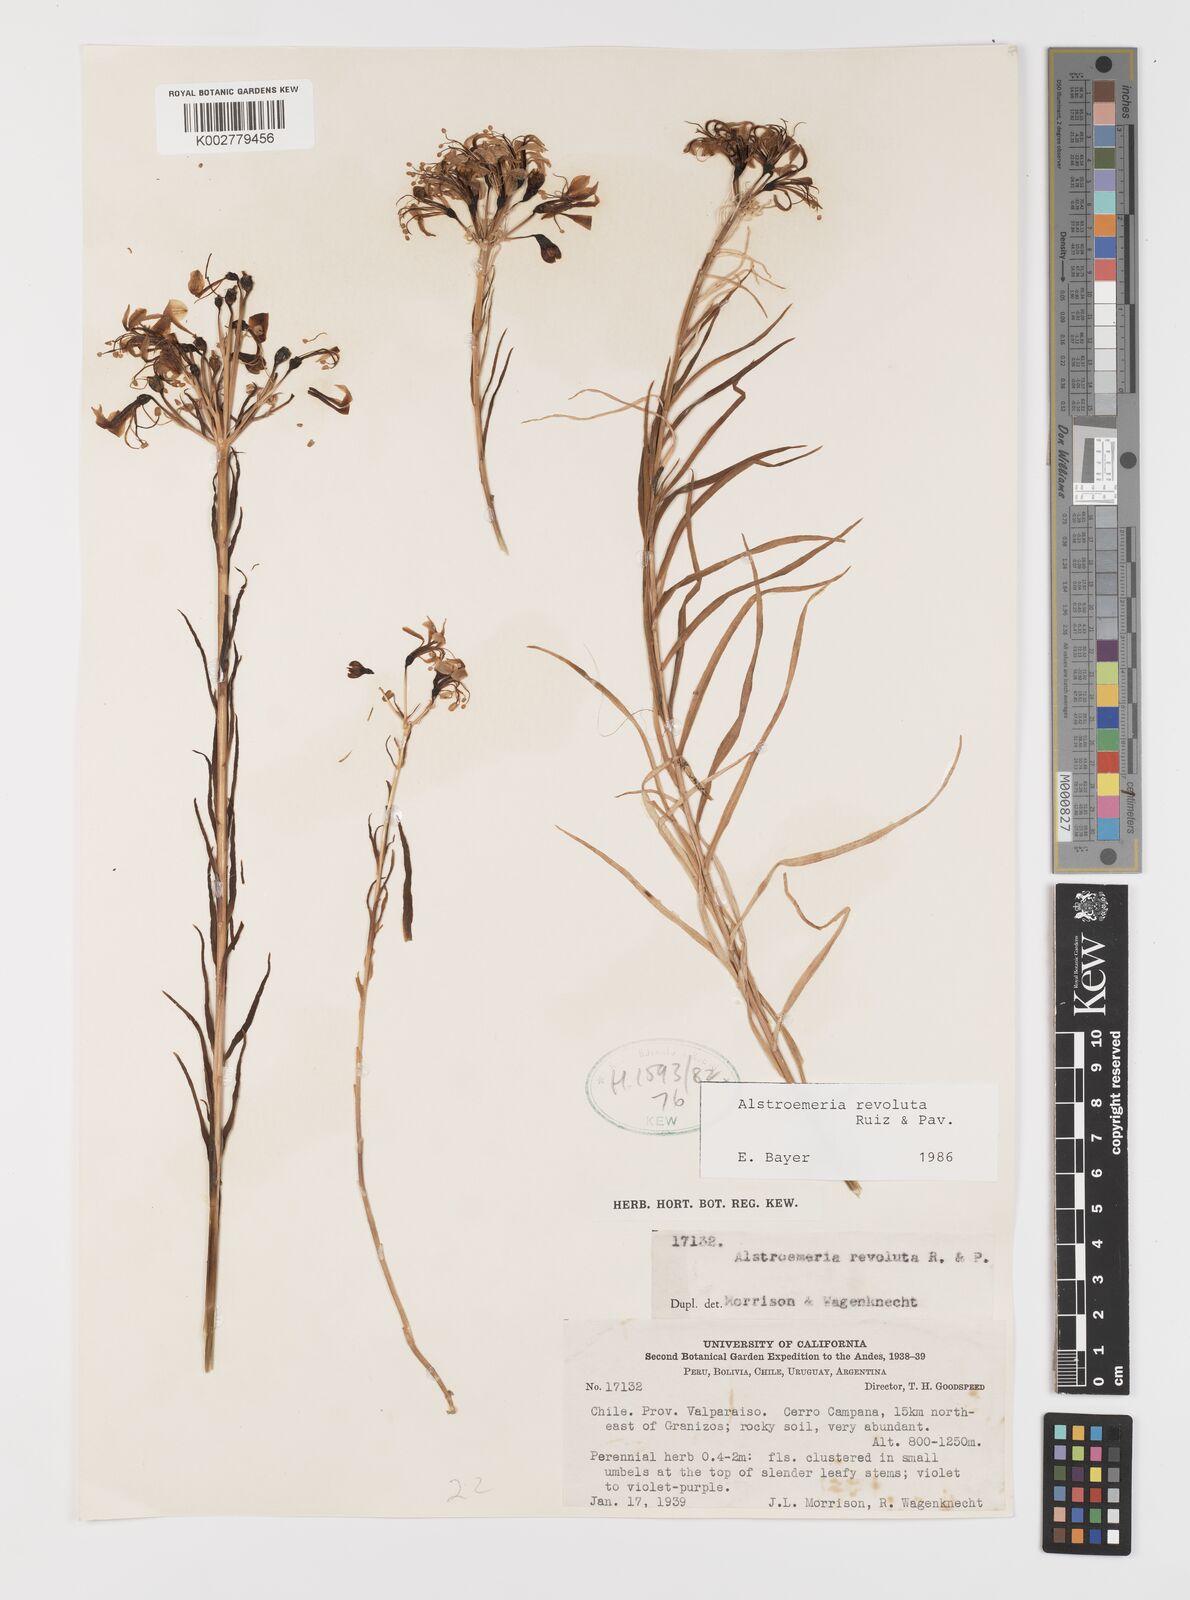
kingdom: Plantae
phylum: Tracheophyta
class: Liliopsida
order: Liliales
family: Alstroemeriaceae
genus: Alstroemeria
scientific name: Alstroemeria revoluta
